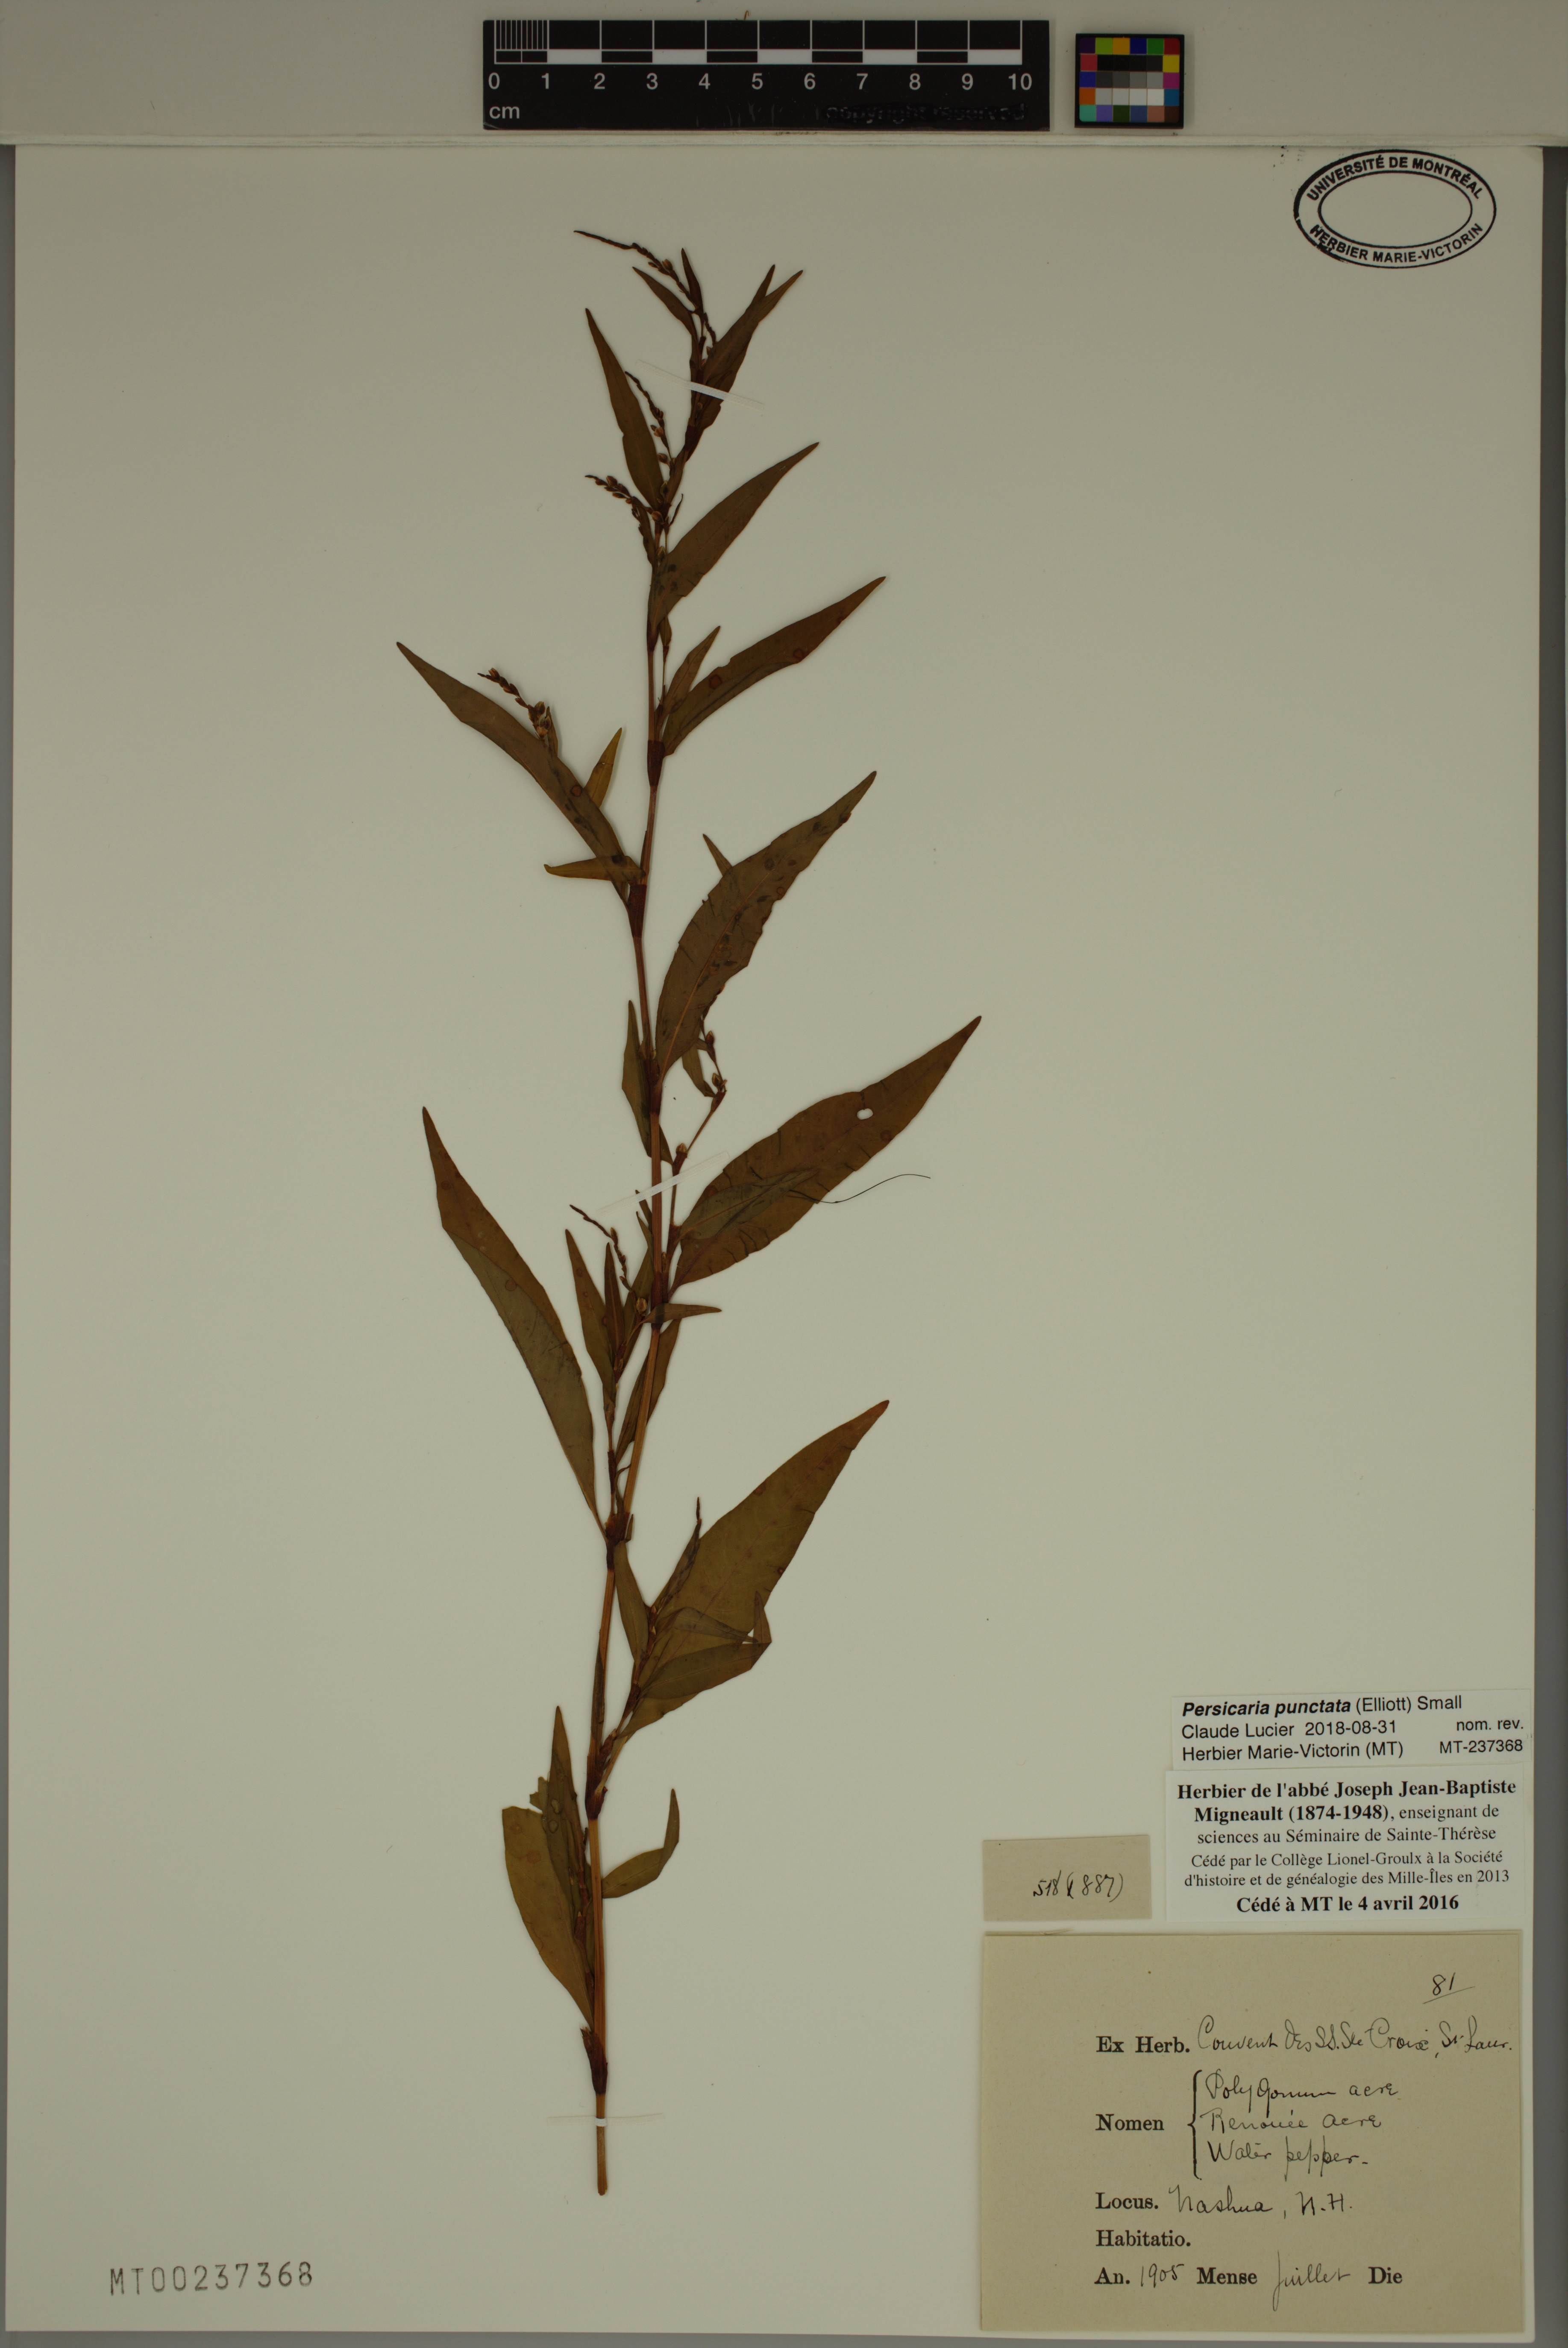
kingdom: Plantae
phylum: Tracheophyta
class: Magnoliopsida
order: Caryophyllales
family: Polygonaceae
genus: Persicaria
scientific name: Persicaria punctata
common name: Dotted smartweed
